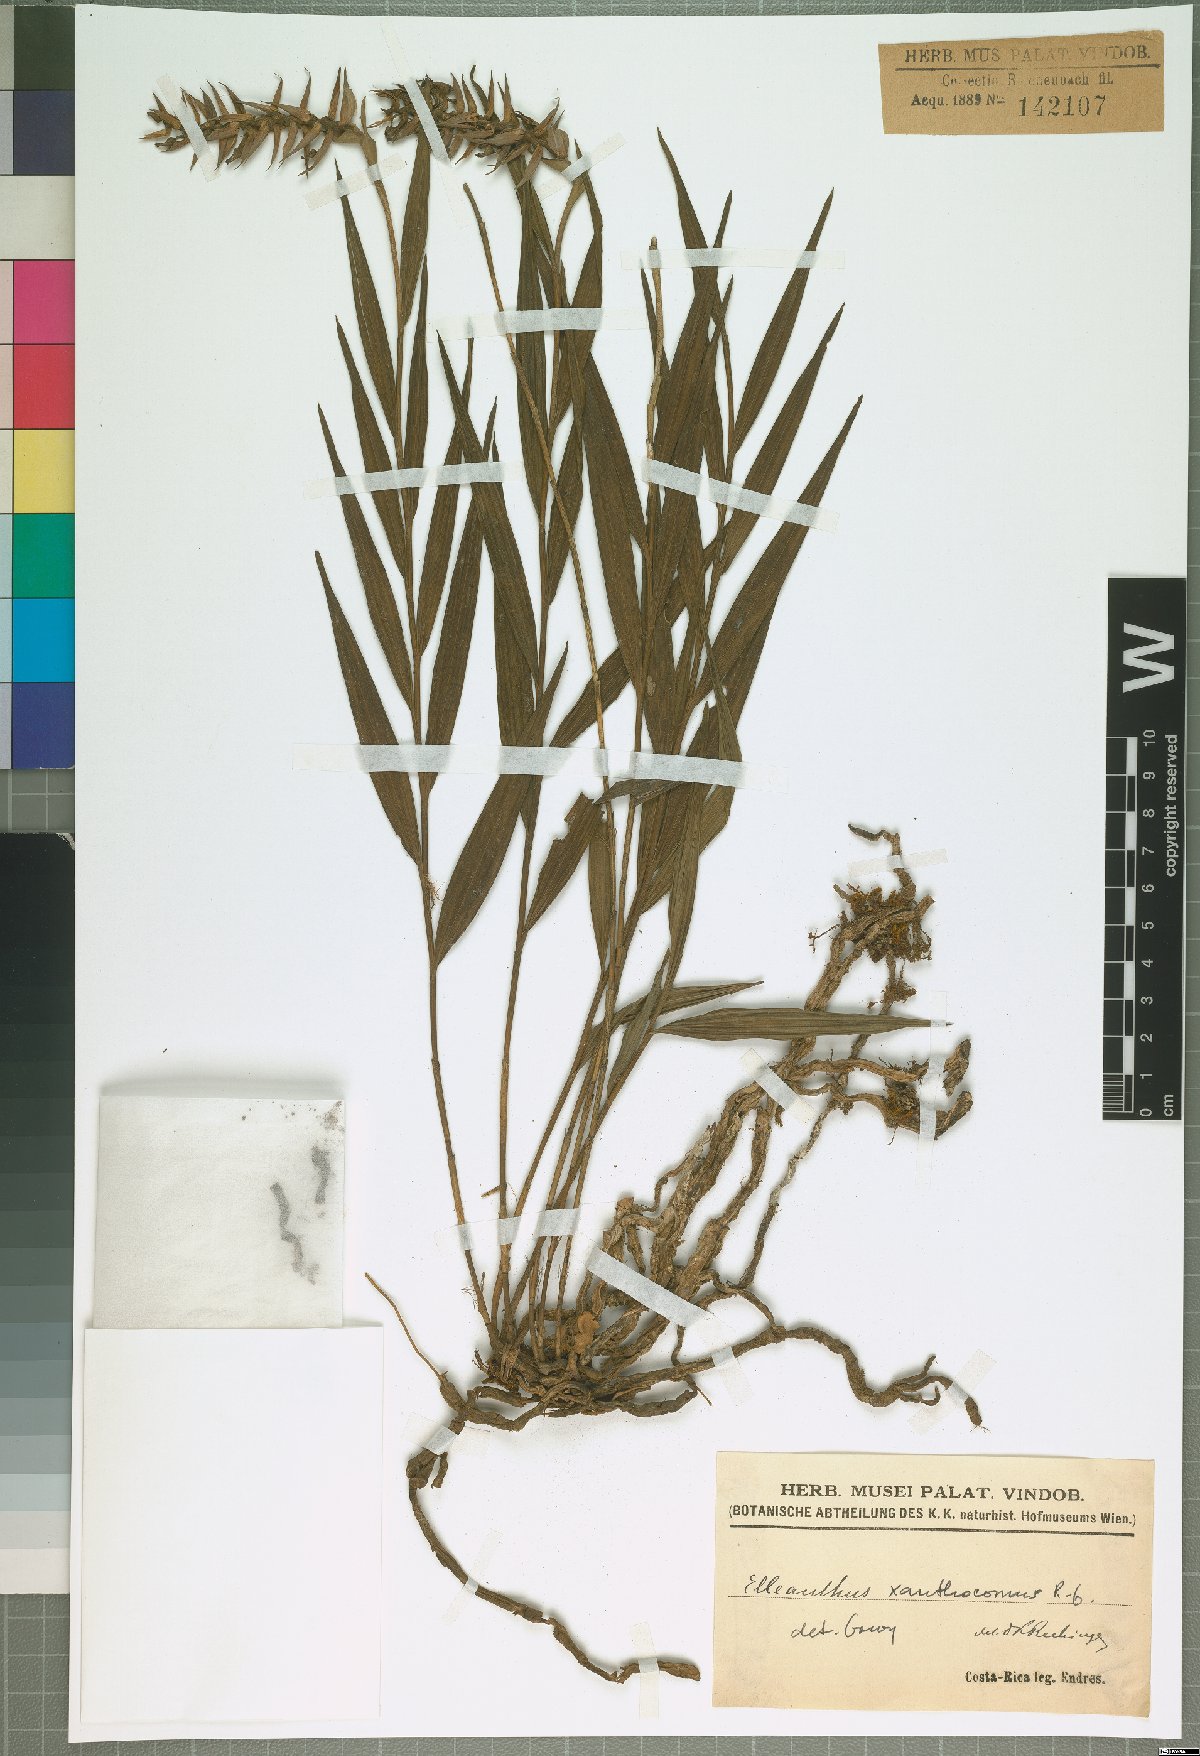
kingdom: Plantae
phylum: Tracheophyta
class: Liliopsida
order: Asparagales
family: Orchidaceae
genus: Elleanthus
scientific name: Elleanthus longibracteatus
